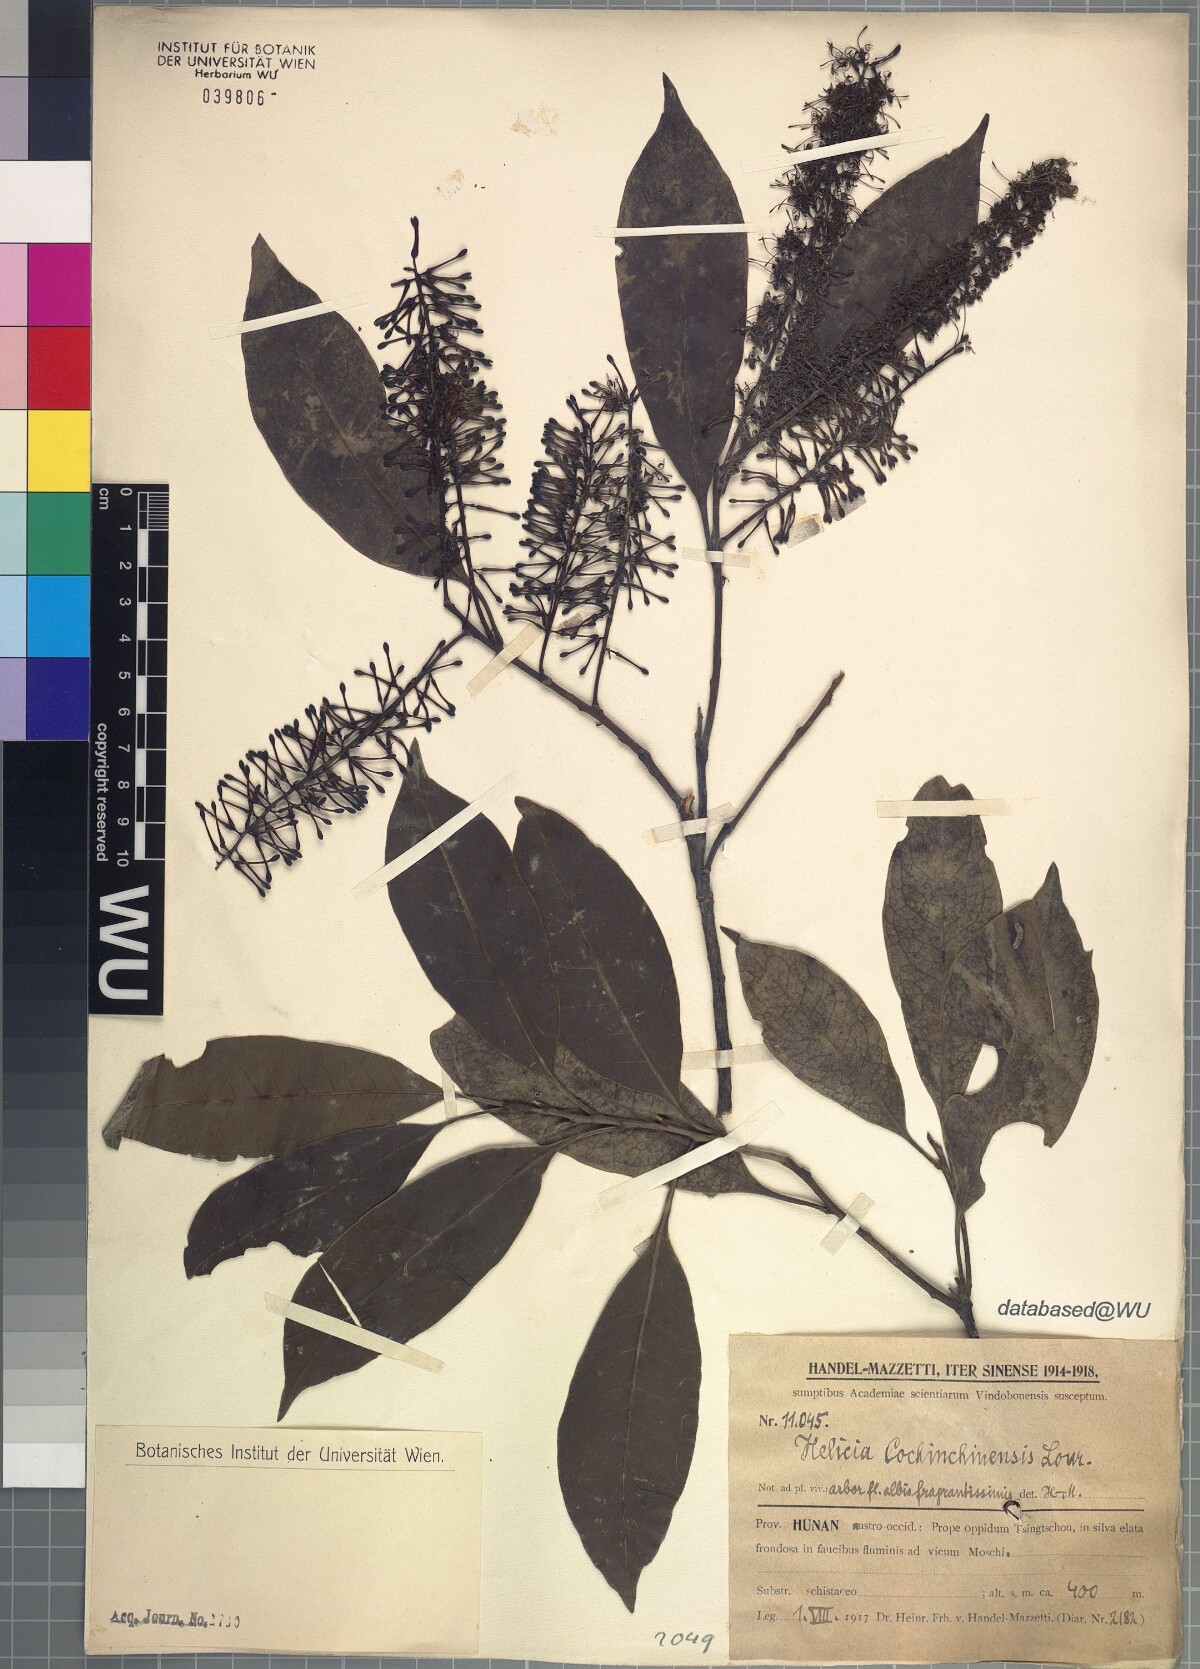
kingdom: Plantae
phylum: Tracheophyta
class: Magnoliopsida
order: Proteales
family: Proteaceae
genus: Helicia
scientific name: Helicia cochinchinensis
